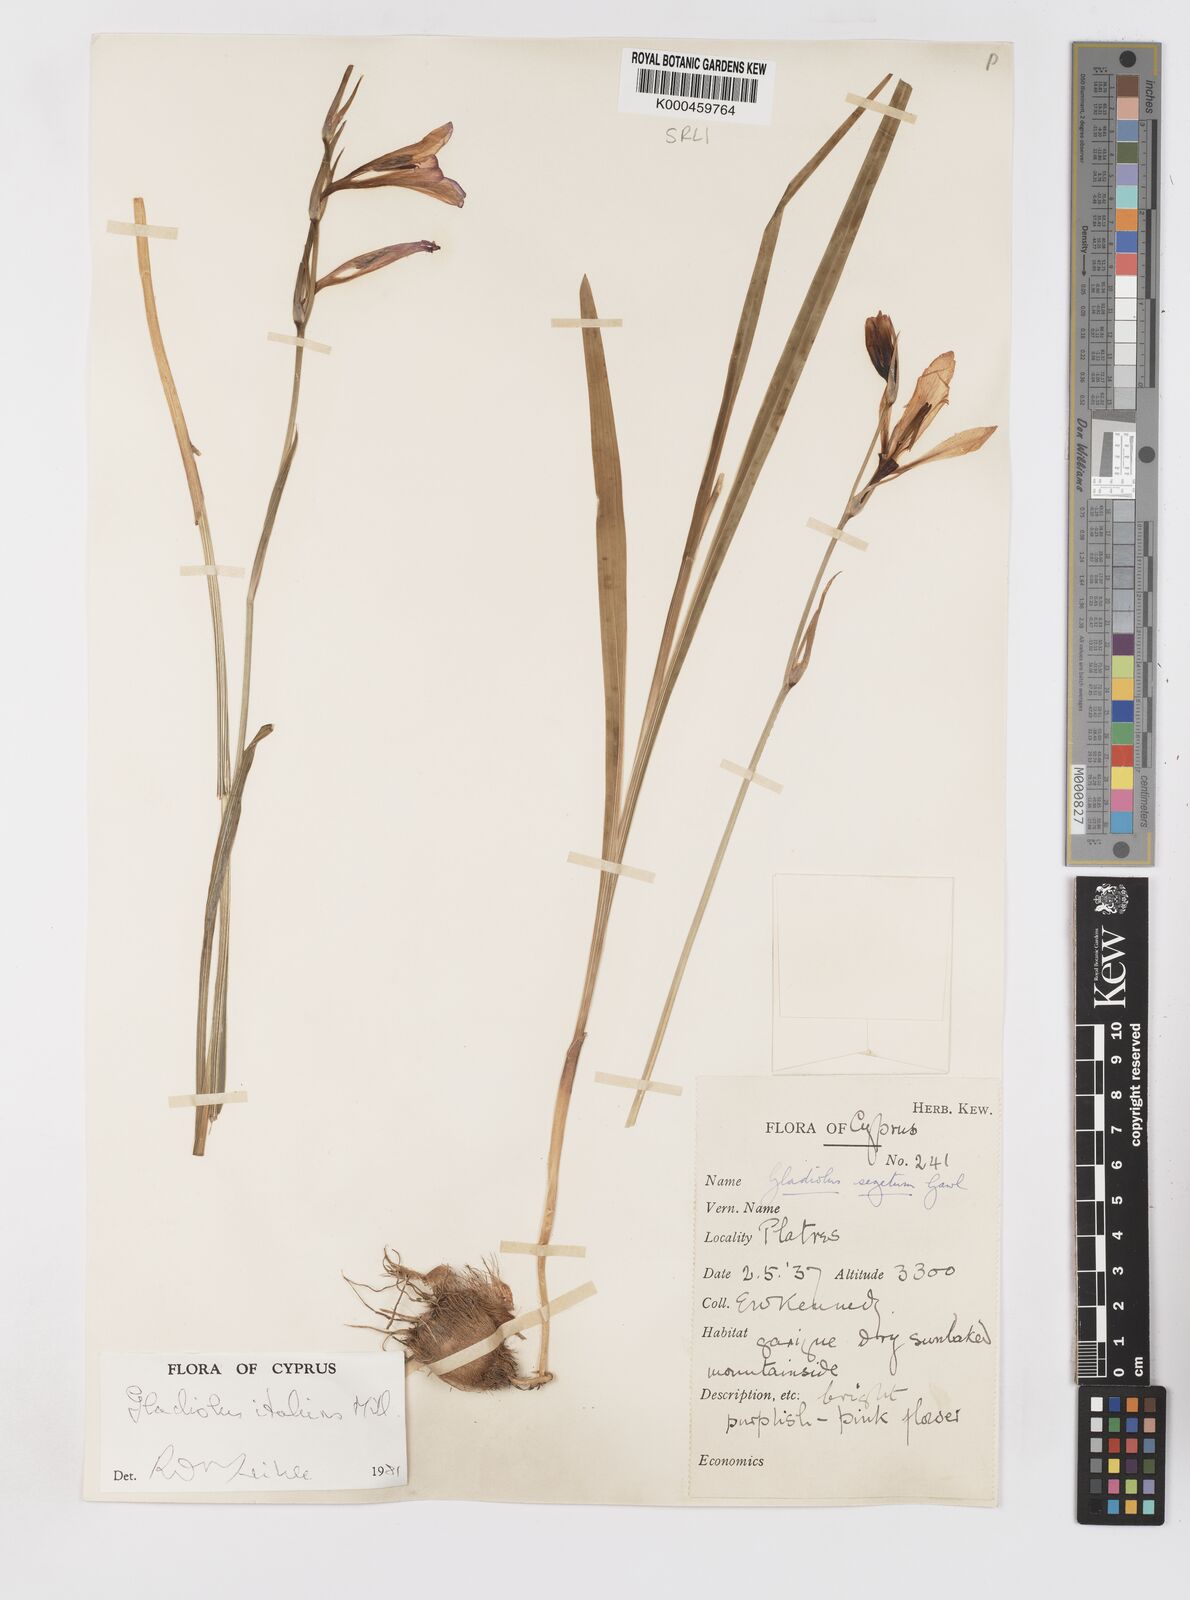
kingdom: Plantae
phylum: Tracheophyta
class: Liliopsida
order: Asparagales
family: Iridaceae
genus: Gladiolus
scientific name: Gladiolus italicus
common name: Field gladiolus
